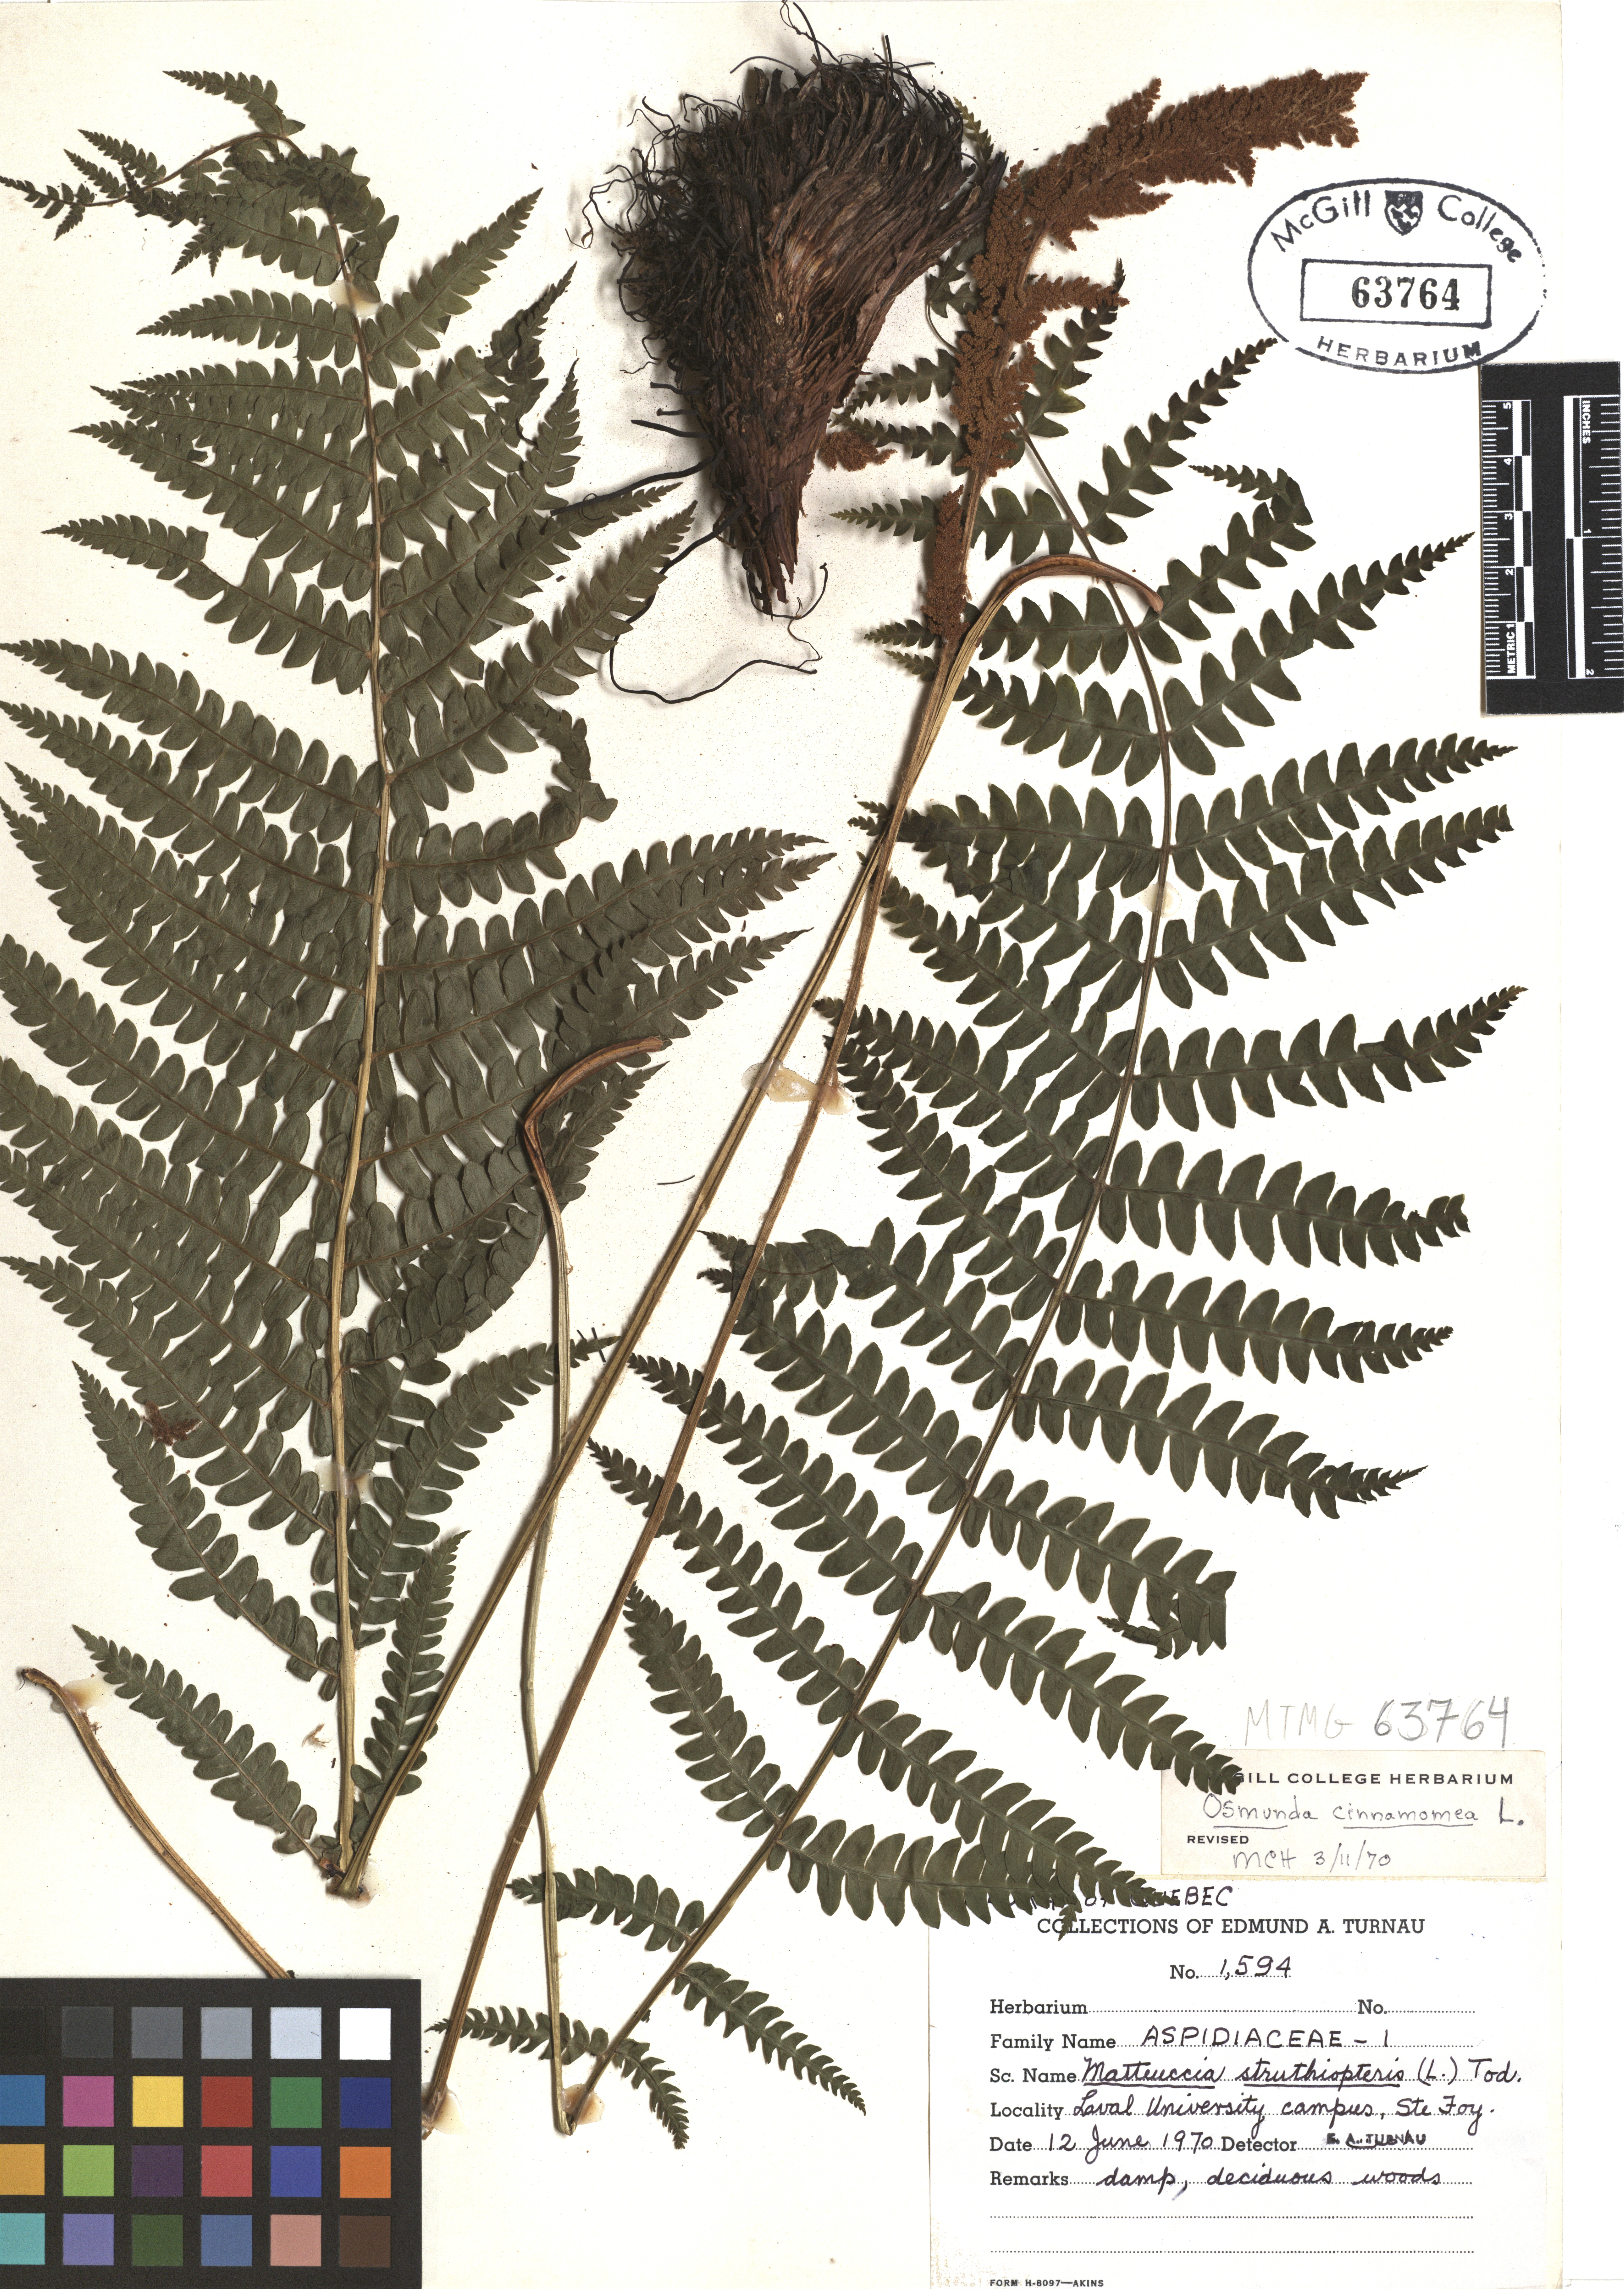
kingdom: Plantae
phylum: Tracheophyta
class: Polypodiopsida
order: Polypodiales
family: Onocleaceae
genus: Matteuccia
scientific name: Matteuccia struthiopteris
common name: Ostrich fern
